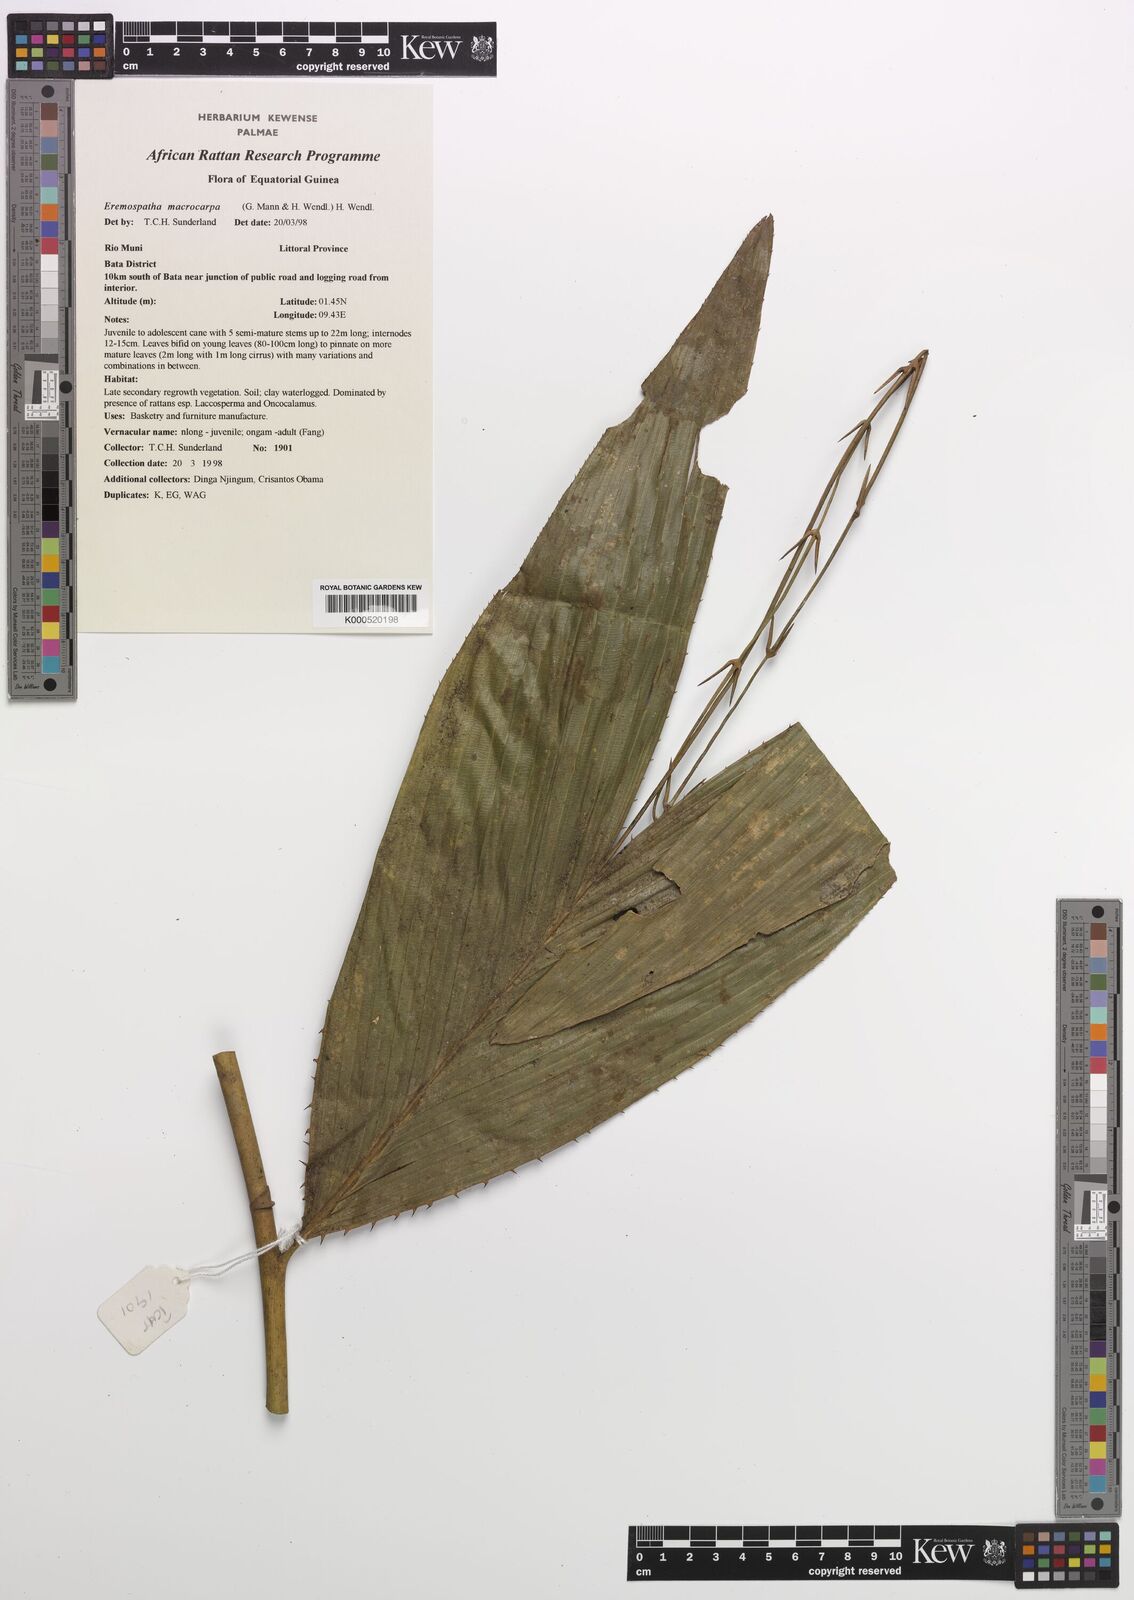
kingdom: Plantae
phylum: Tracheophyta
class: Liliopsida
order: Arecales
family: Arecaceae
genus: Eremospatha
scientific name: Eremospatha
